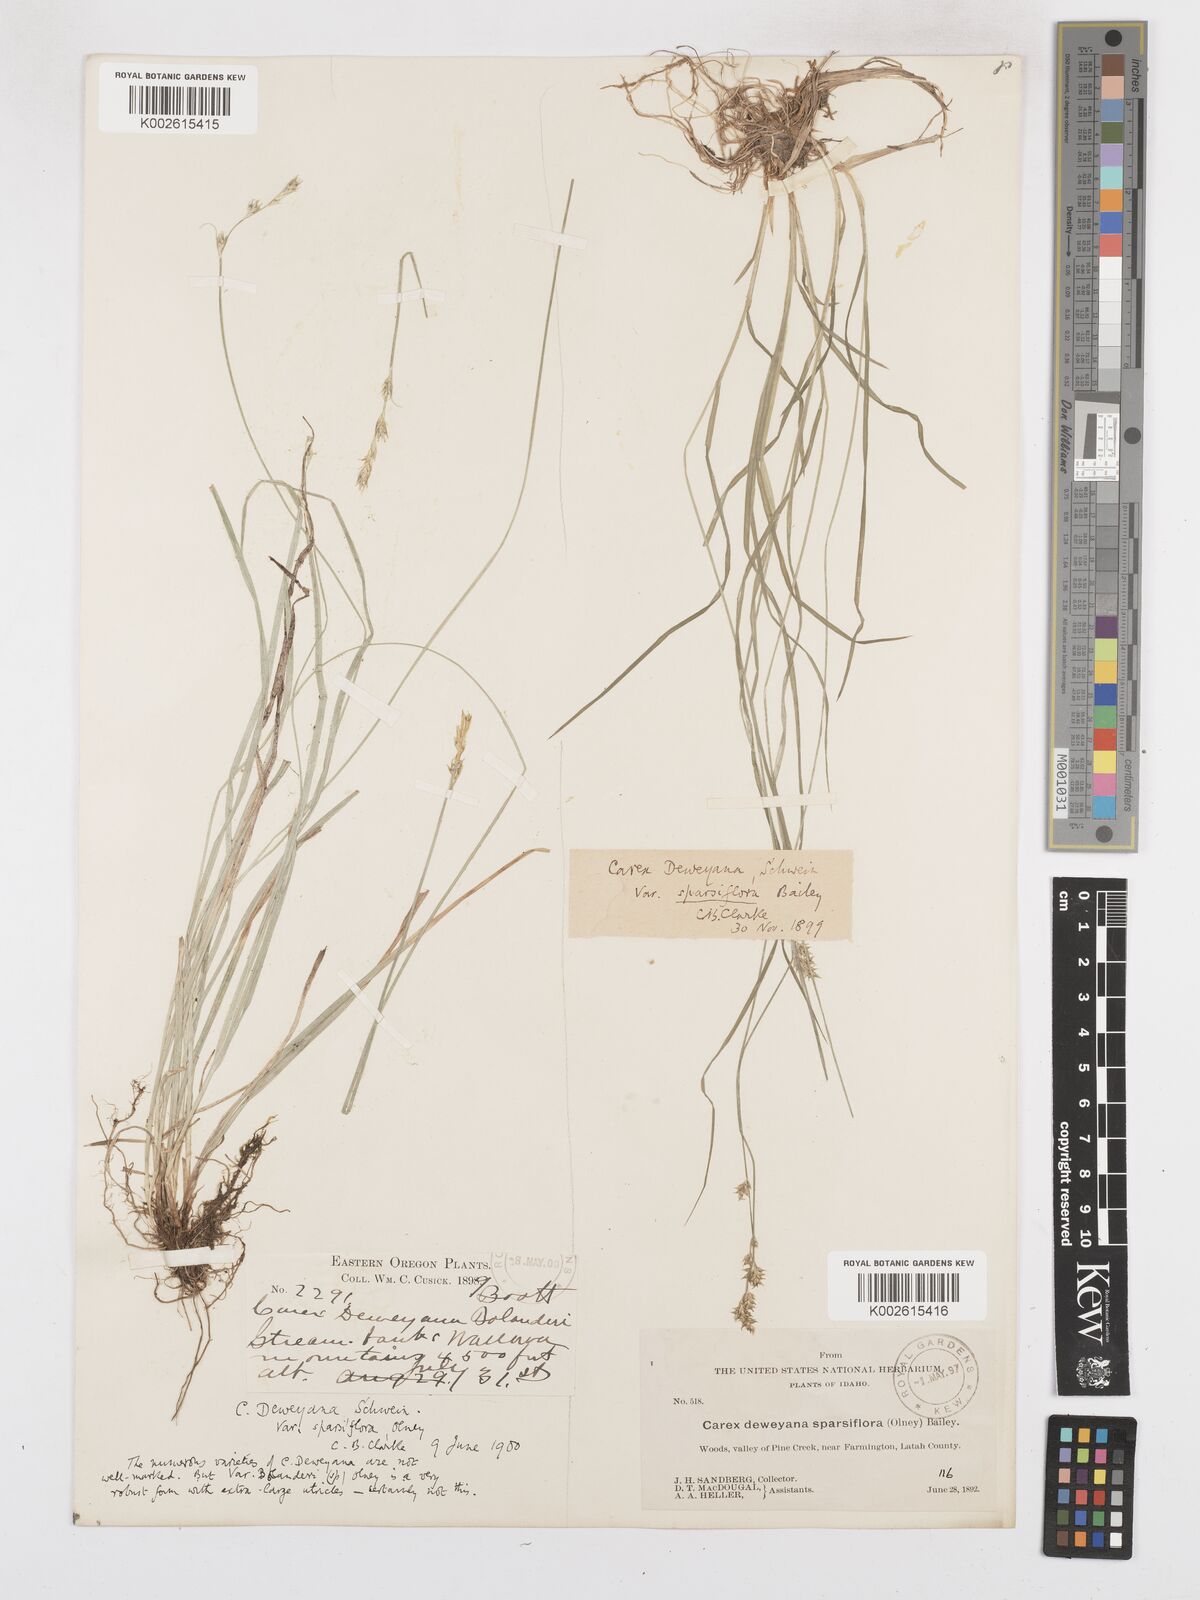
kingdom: Plantae
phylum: Tracheophyta
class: Liliopsida
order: Poales
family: Cyperaceae
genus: Carex
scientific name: Carex bolanderi
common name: Bolander's sedge
